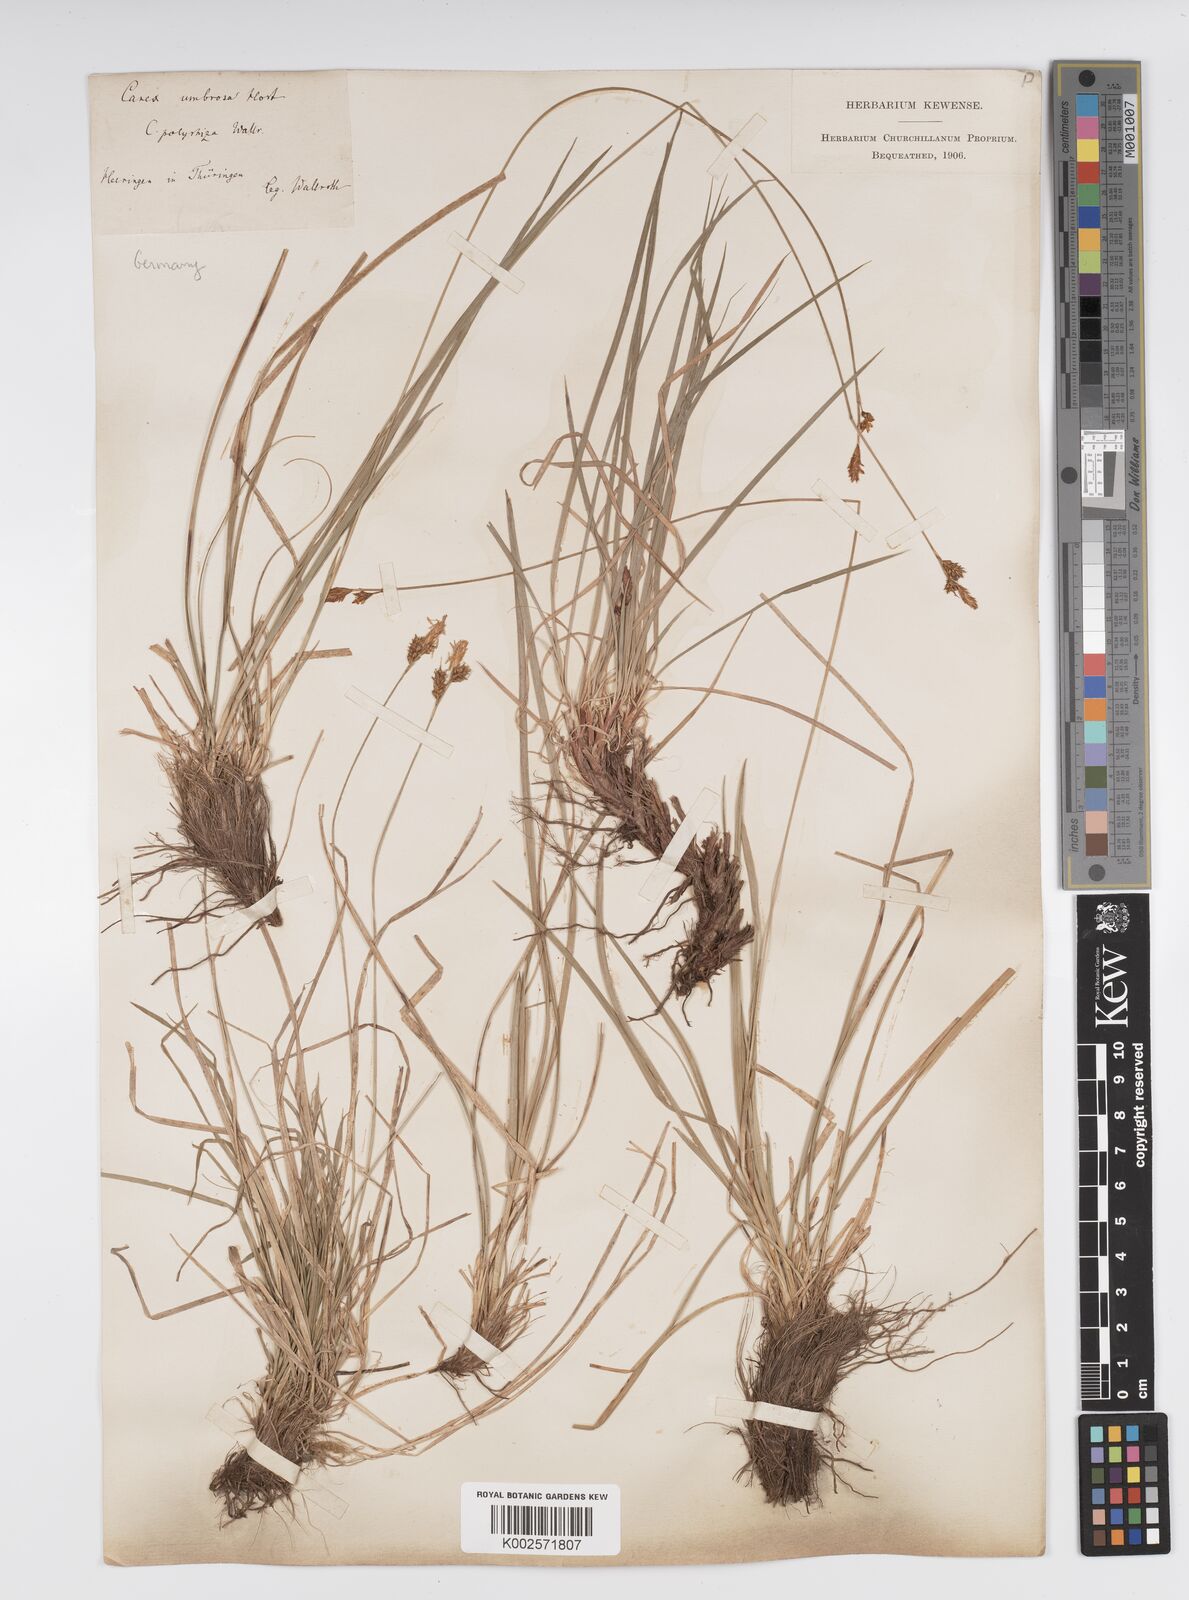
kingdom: Plantae
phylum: Tracheophyta
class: Liliopsida
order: Poales
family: Cyperaceae
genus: Carex
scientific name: Carex umbrosa
